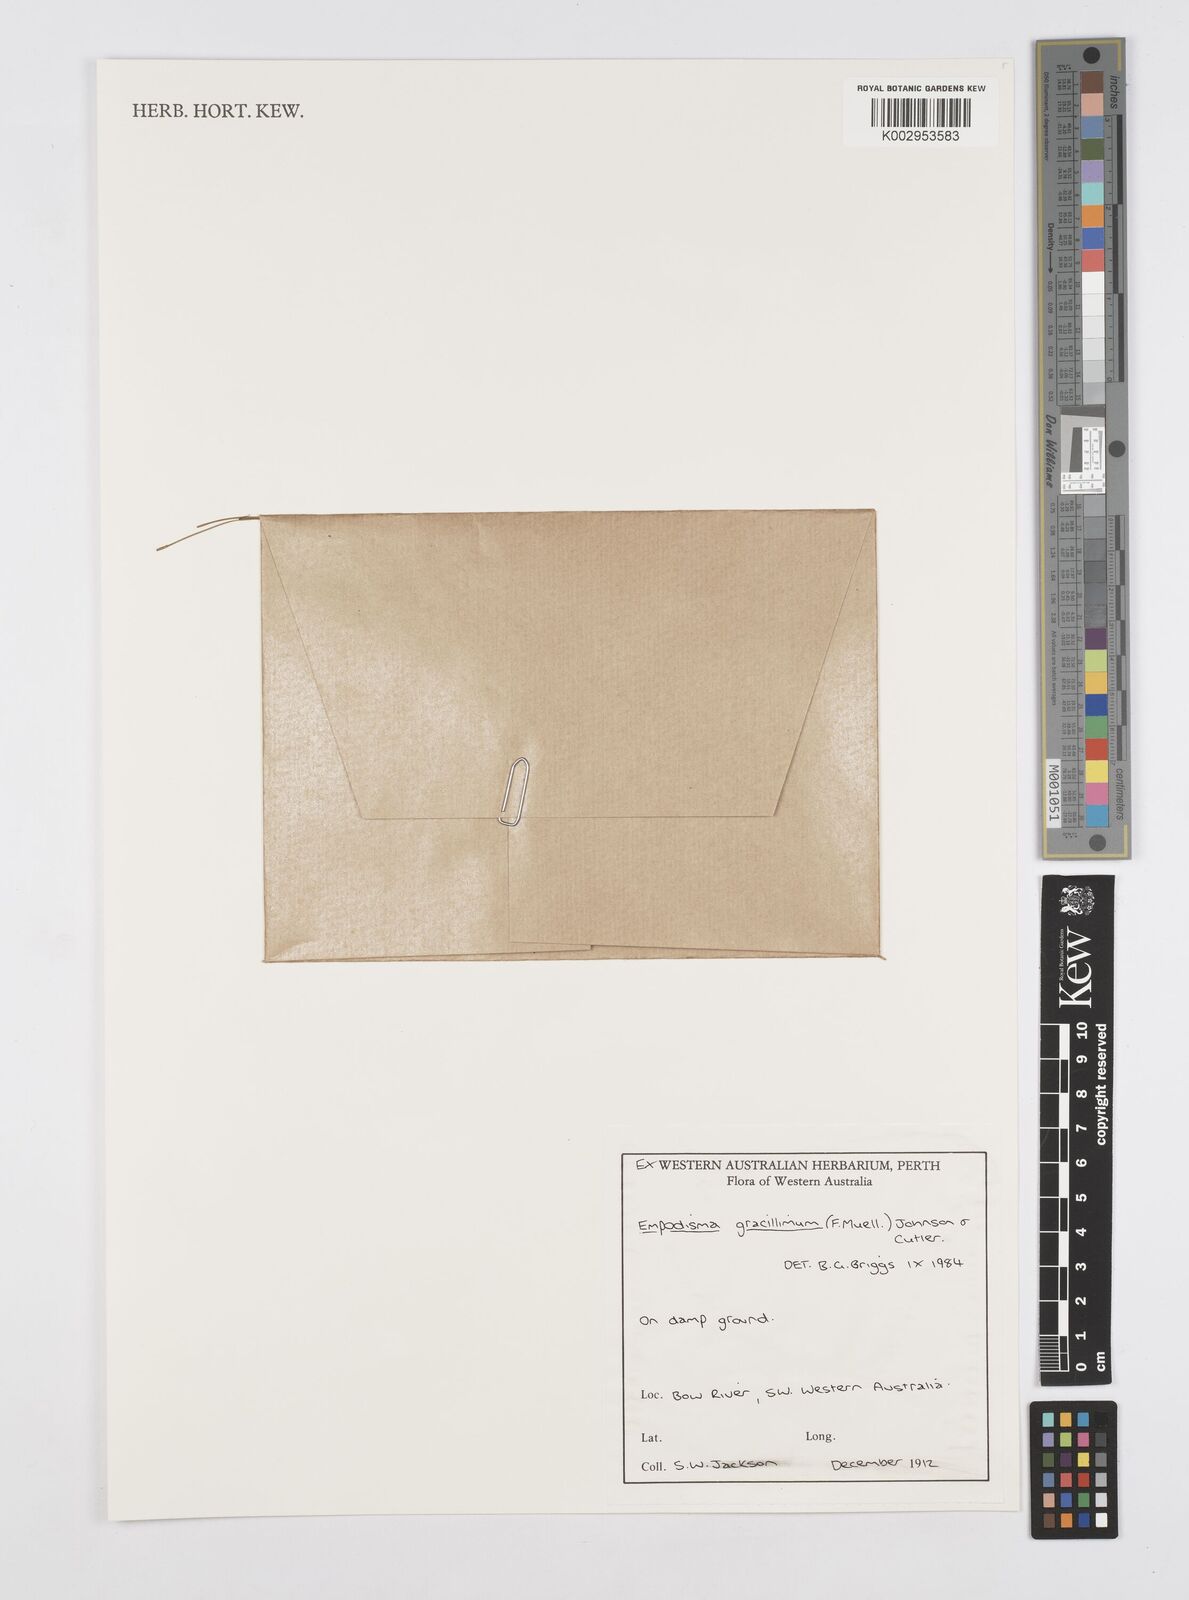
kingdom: Plantae
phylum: Tracheophyta
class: Liliopsida
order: Poales
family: Restionaceae
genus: Empodisma
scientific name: Empodisma gracillimum
